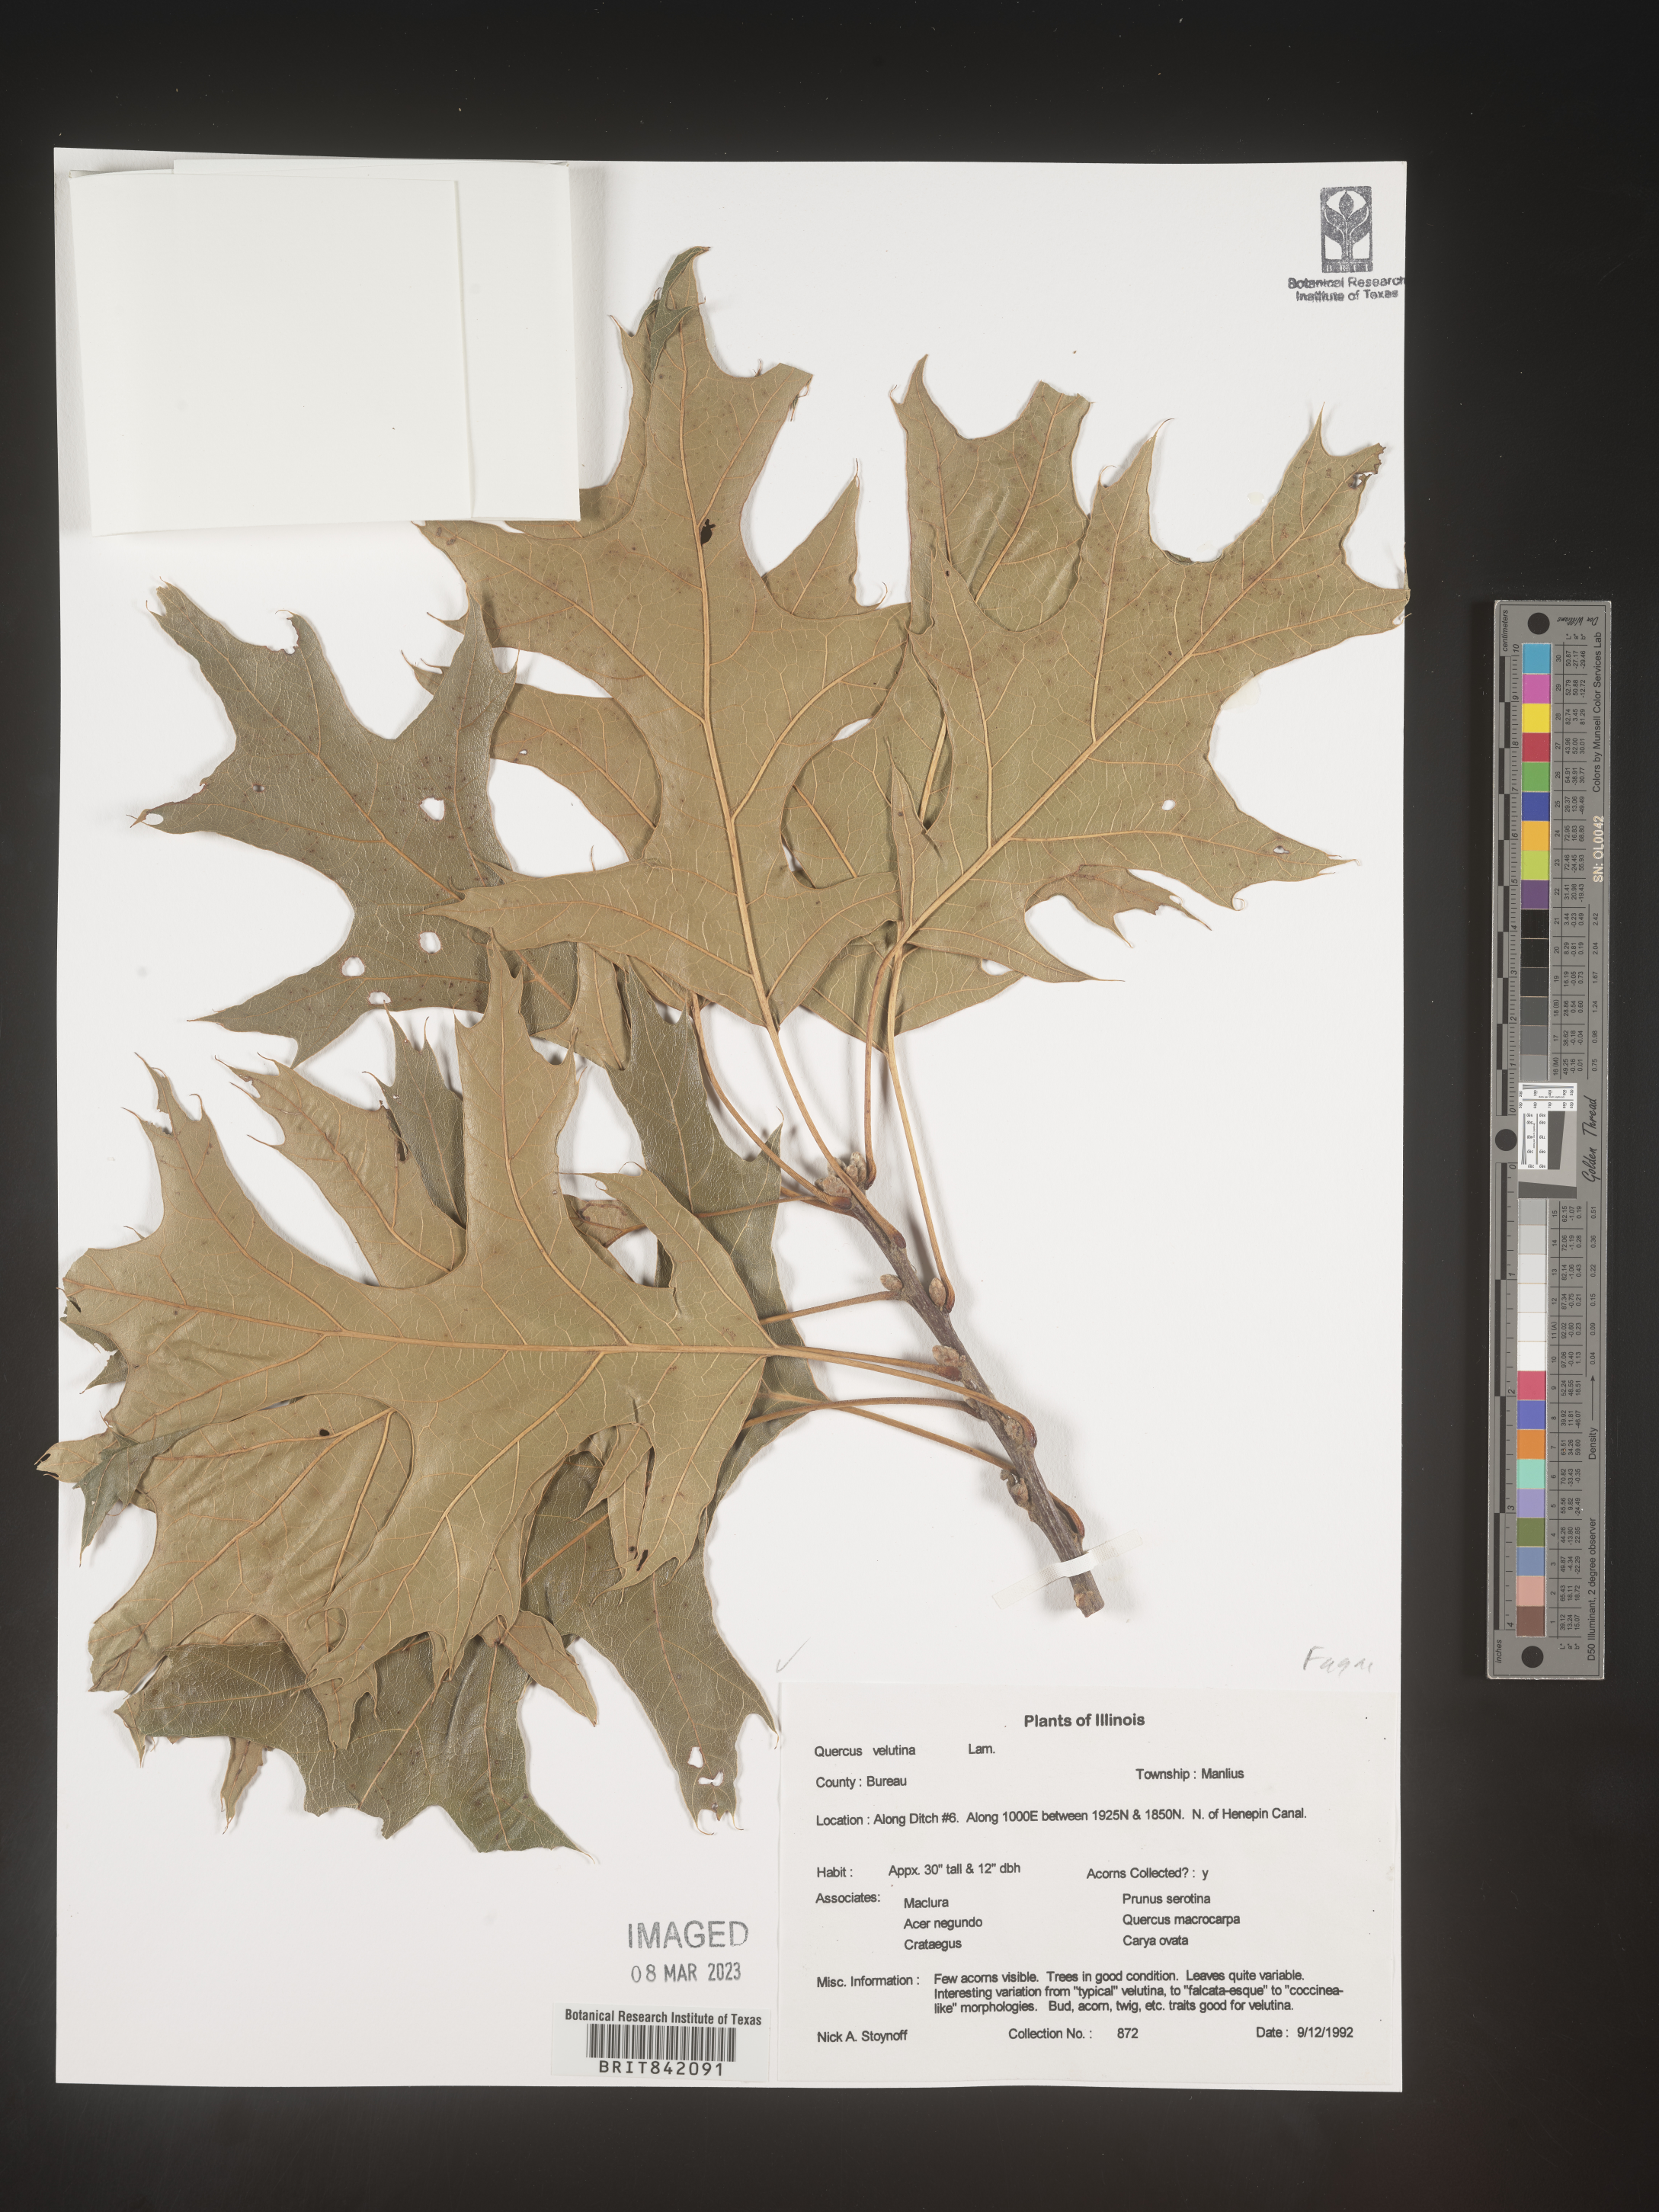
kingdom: Plantae
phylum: Tracheophyta
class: Magnoliopsida
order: Fagales
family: Fagaceae
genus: Quercus
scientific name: Quercus velutina
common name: Black oak
